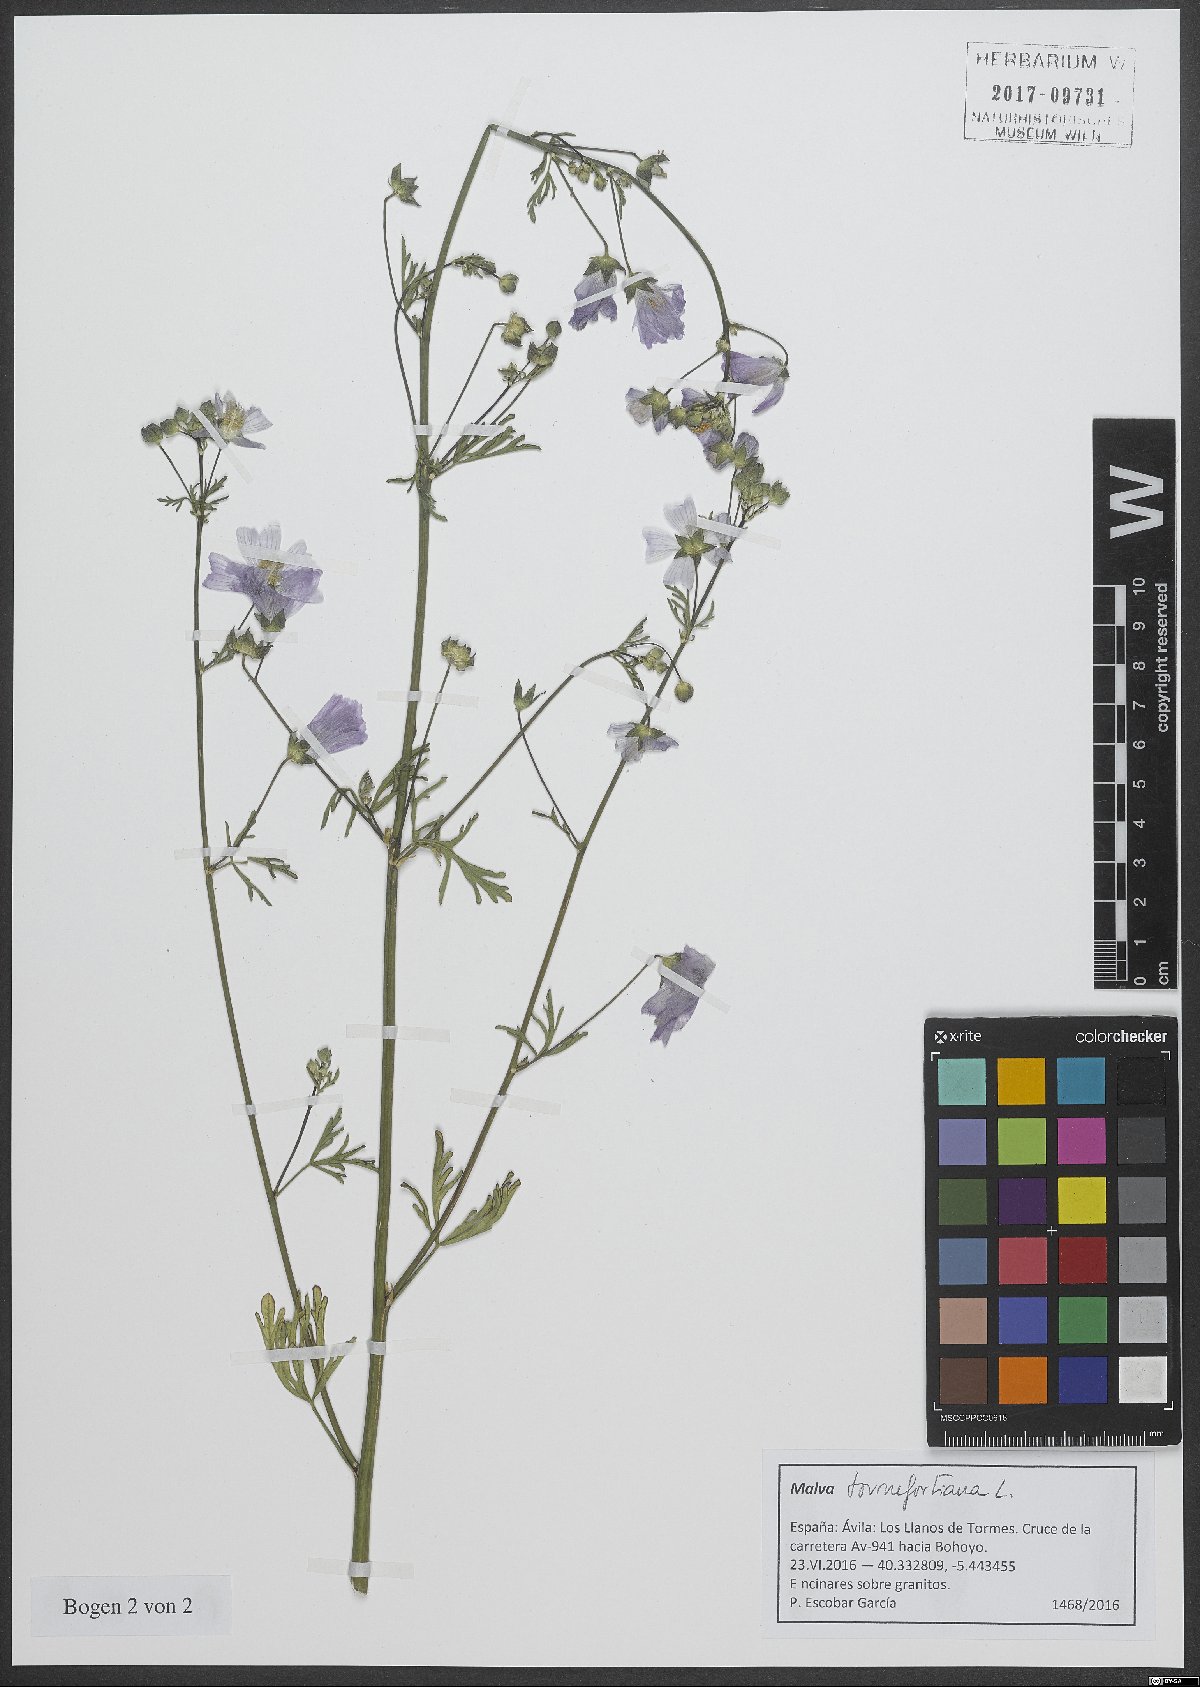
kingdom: Plantae
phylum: Tracheophyta
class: Magnoliopsida
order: Malvales
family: Malvaceae
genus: Malva
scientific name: Malva tournefortiana
